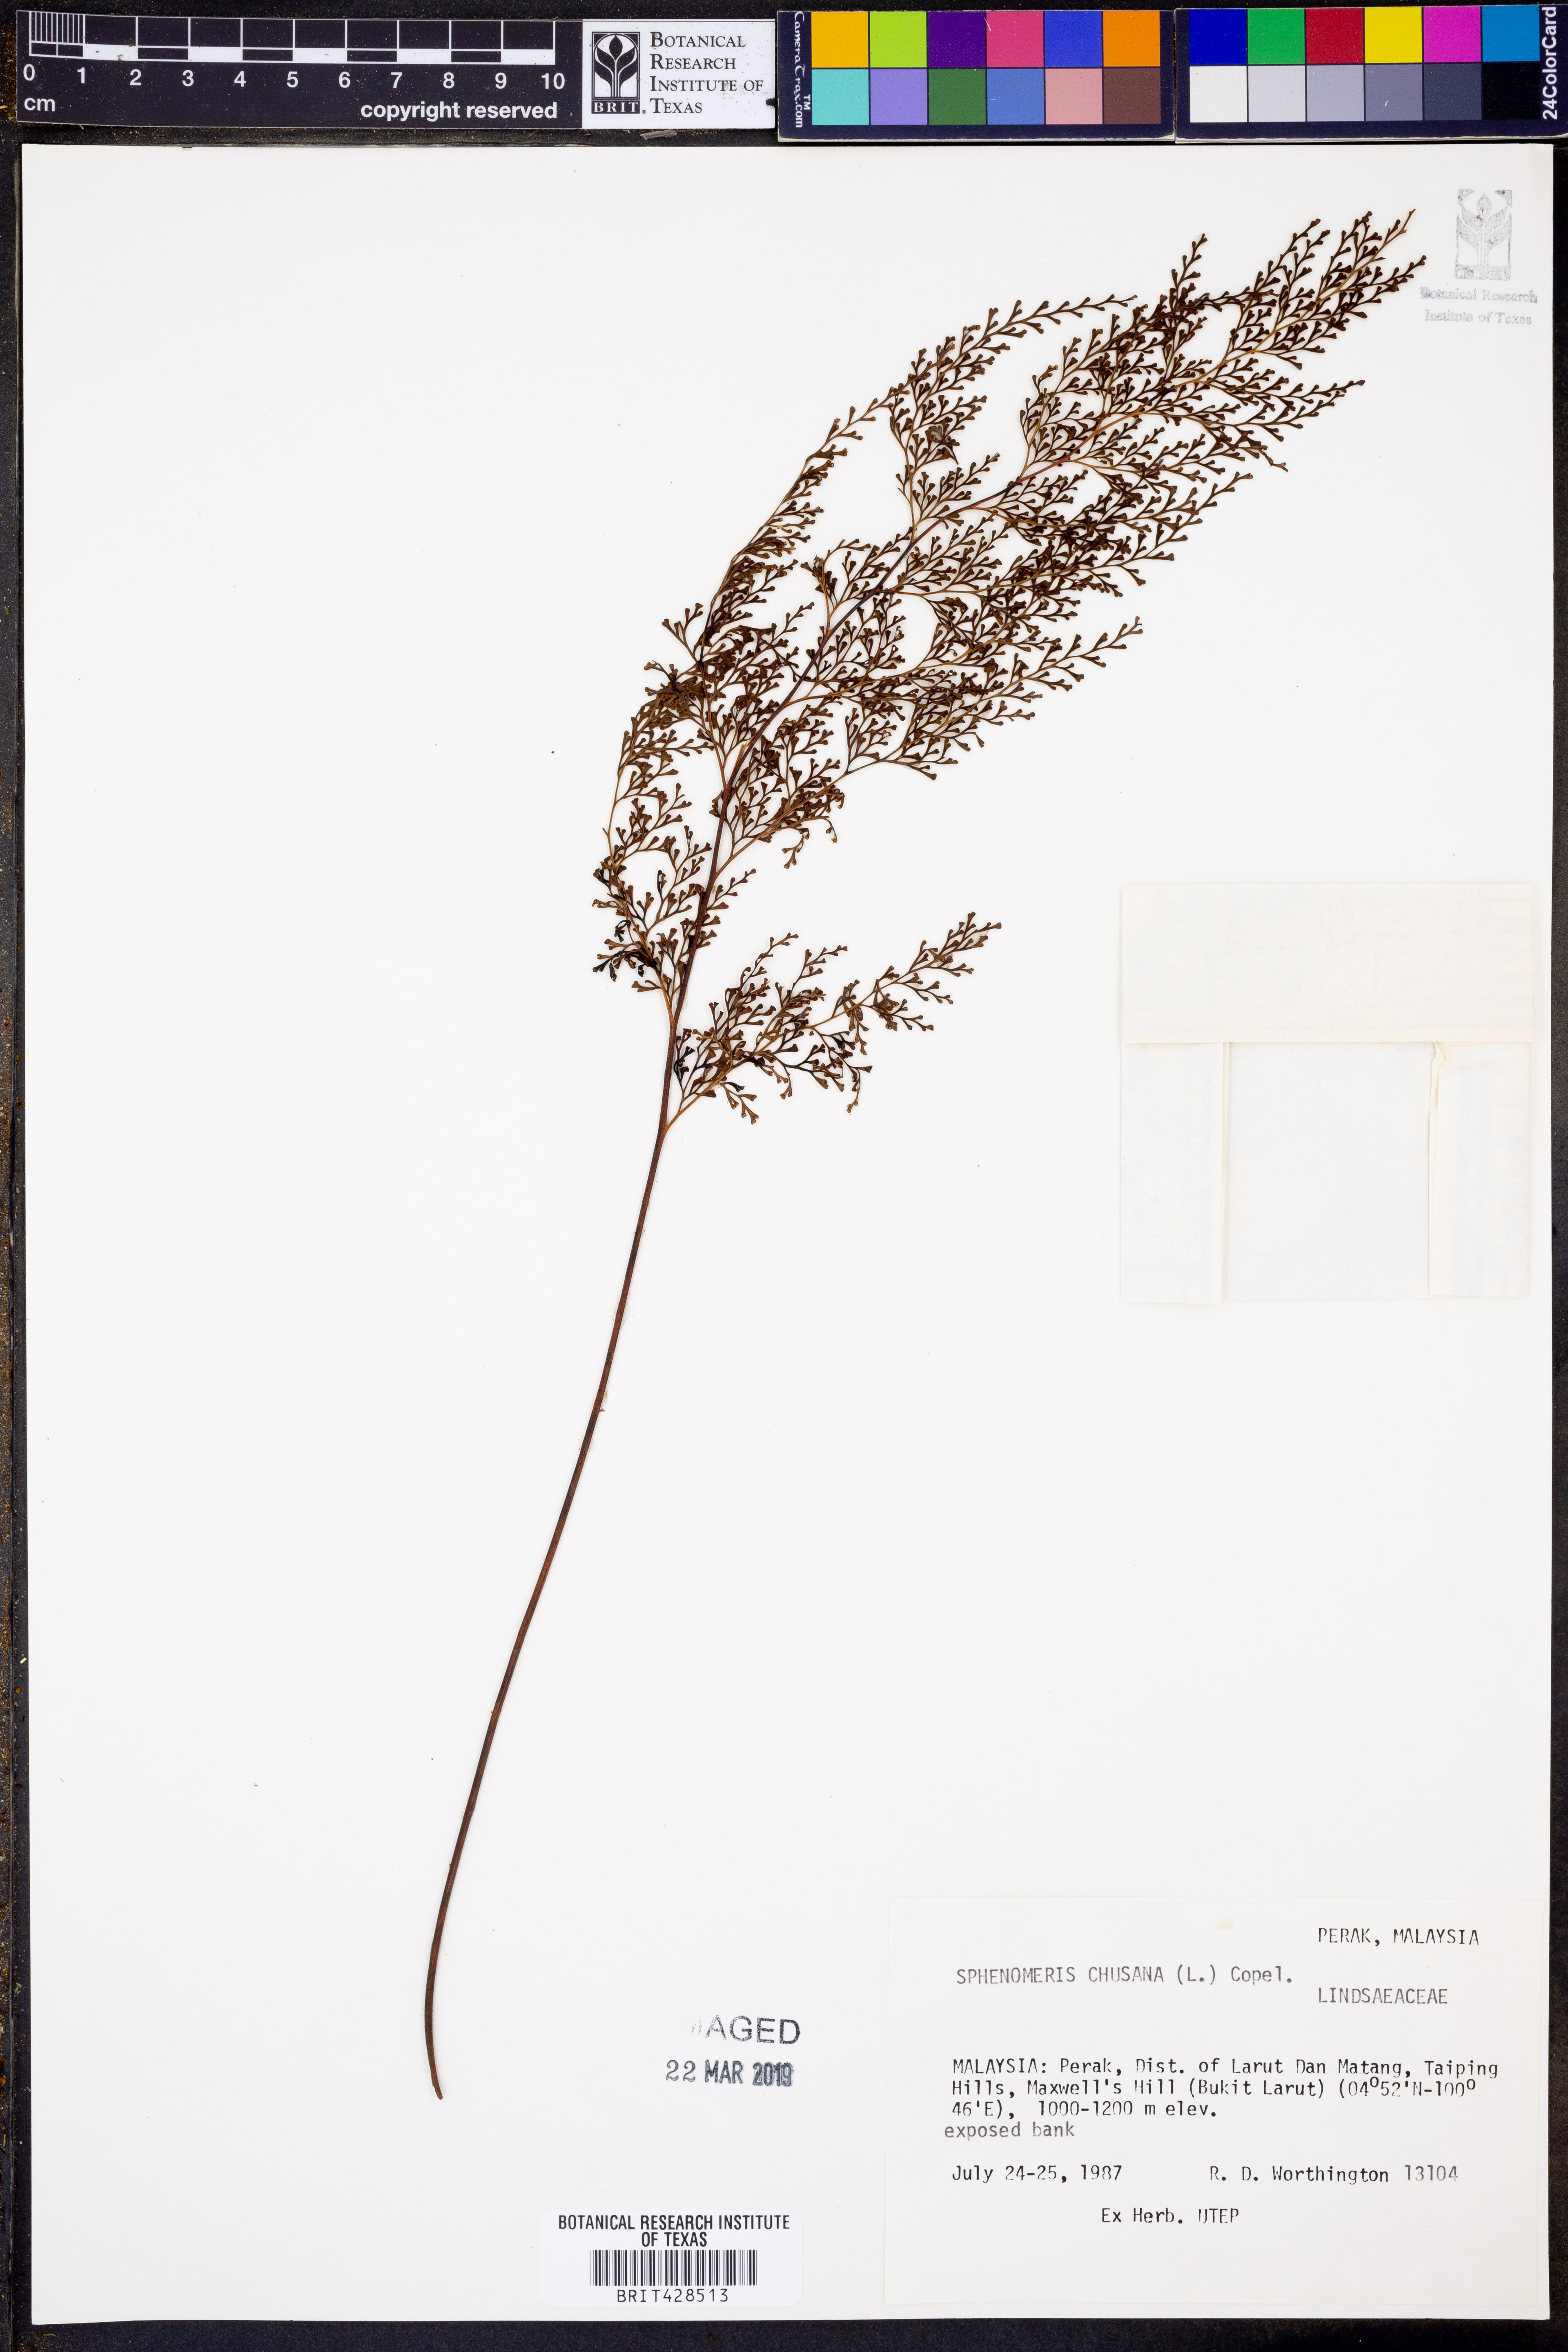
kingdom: Plantae
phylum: Tracheophyta
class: Polypodiopsida
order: Polypodiales
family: Lindsaeaceae
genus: Odontosoria
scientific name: Odontosoria chinensis
